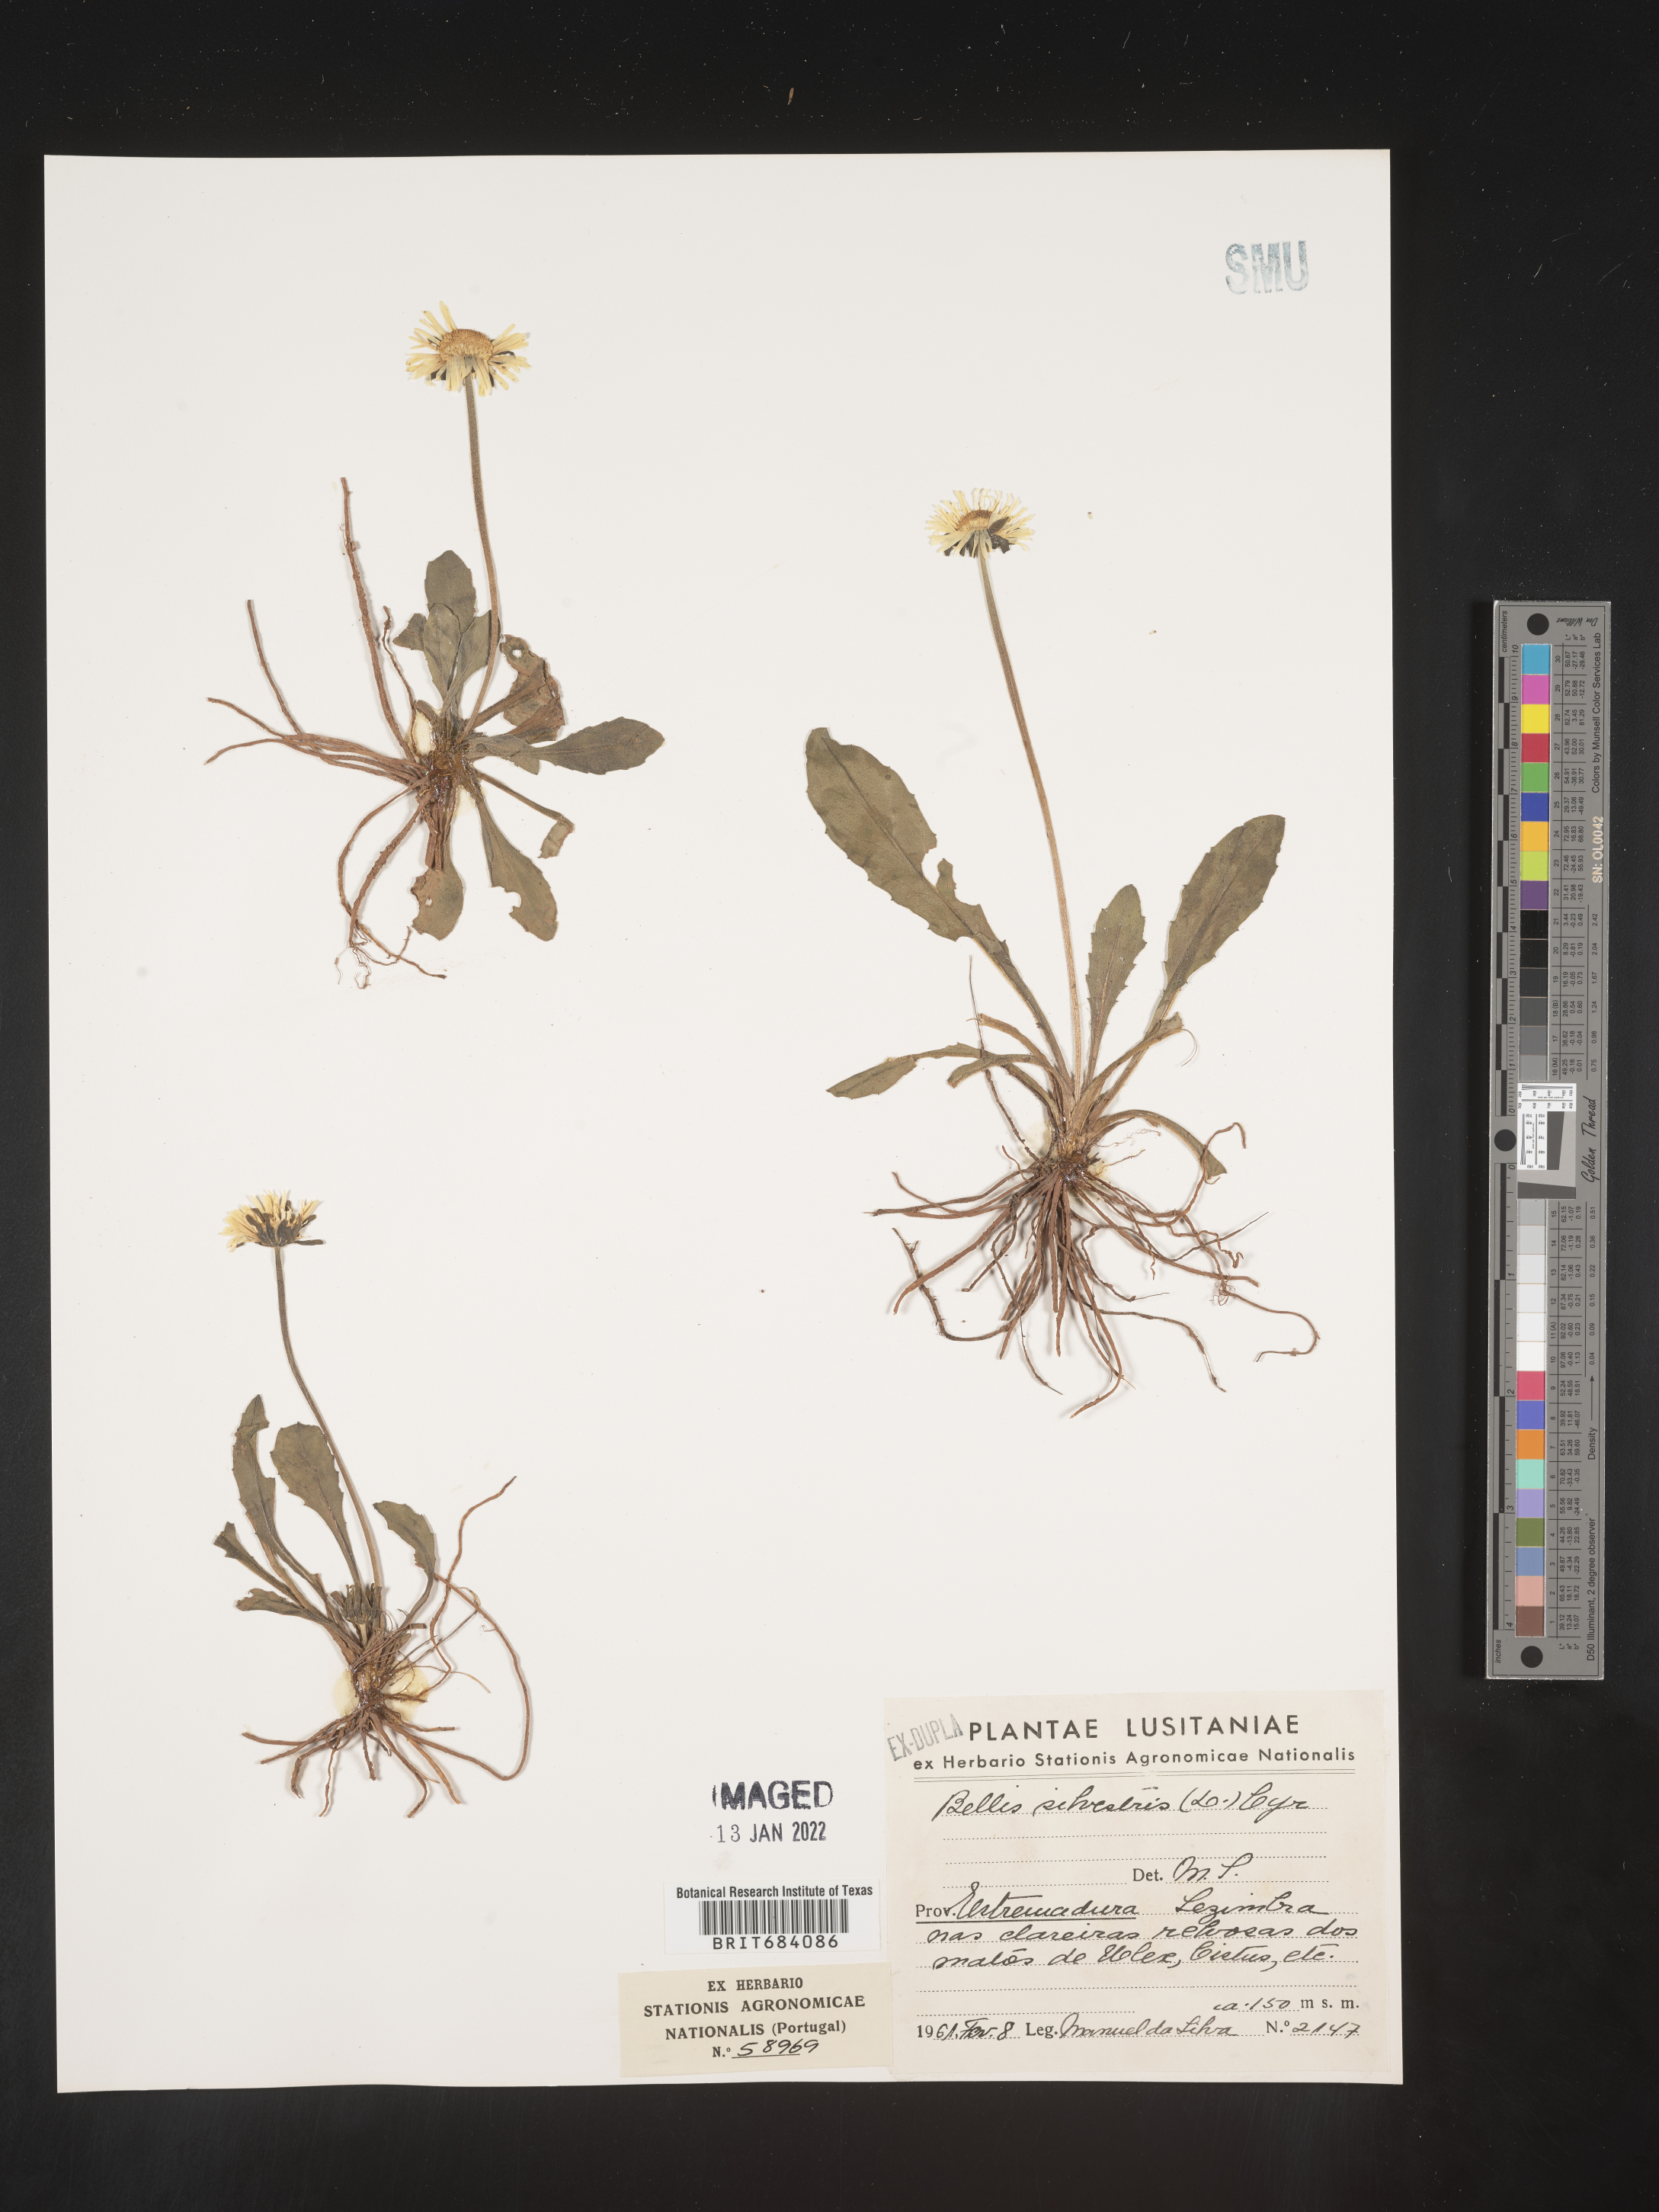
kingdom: Plantae
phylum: Tracheophyta
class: Magnoliopsida
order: Asterales
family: Asteraceae
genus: Bellis
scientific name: Bellis
